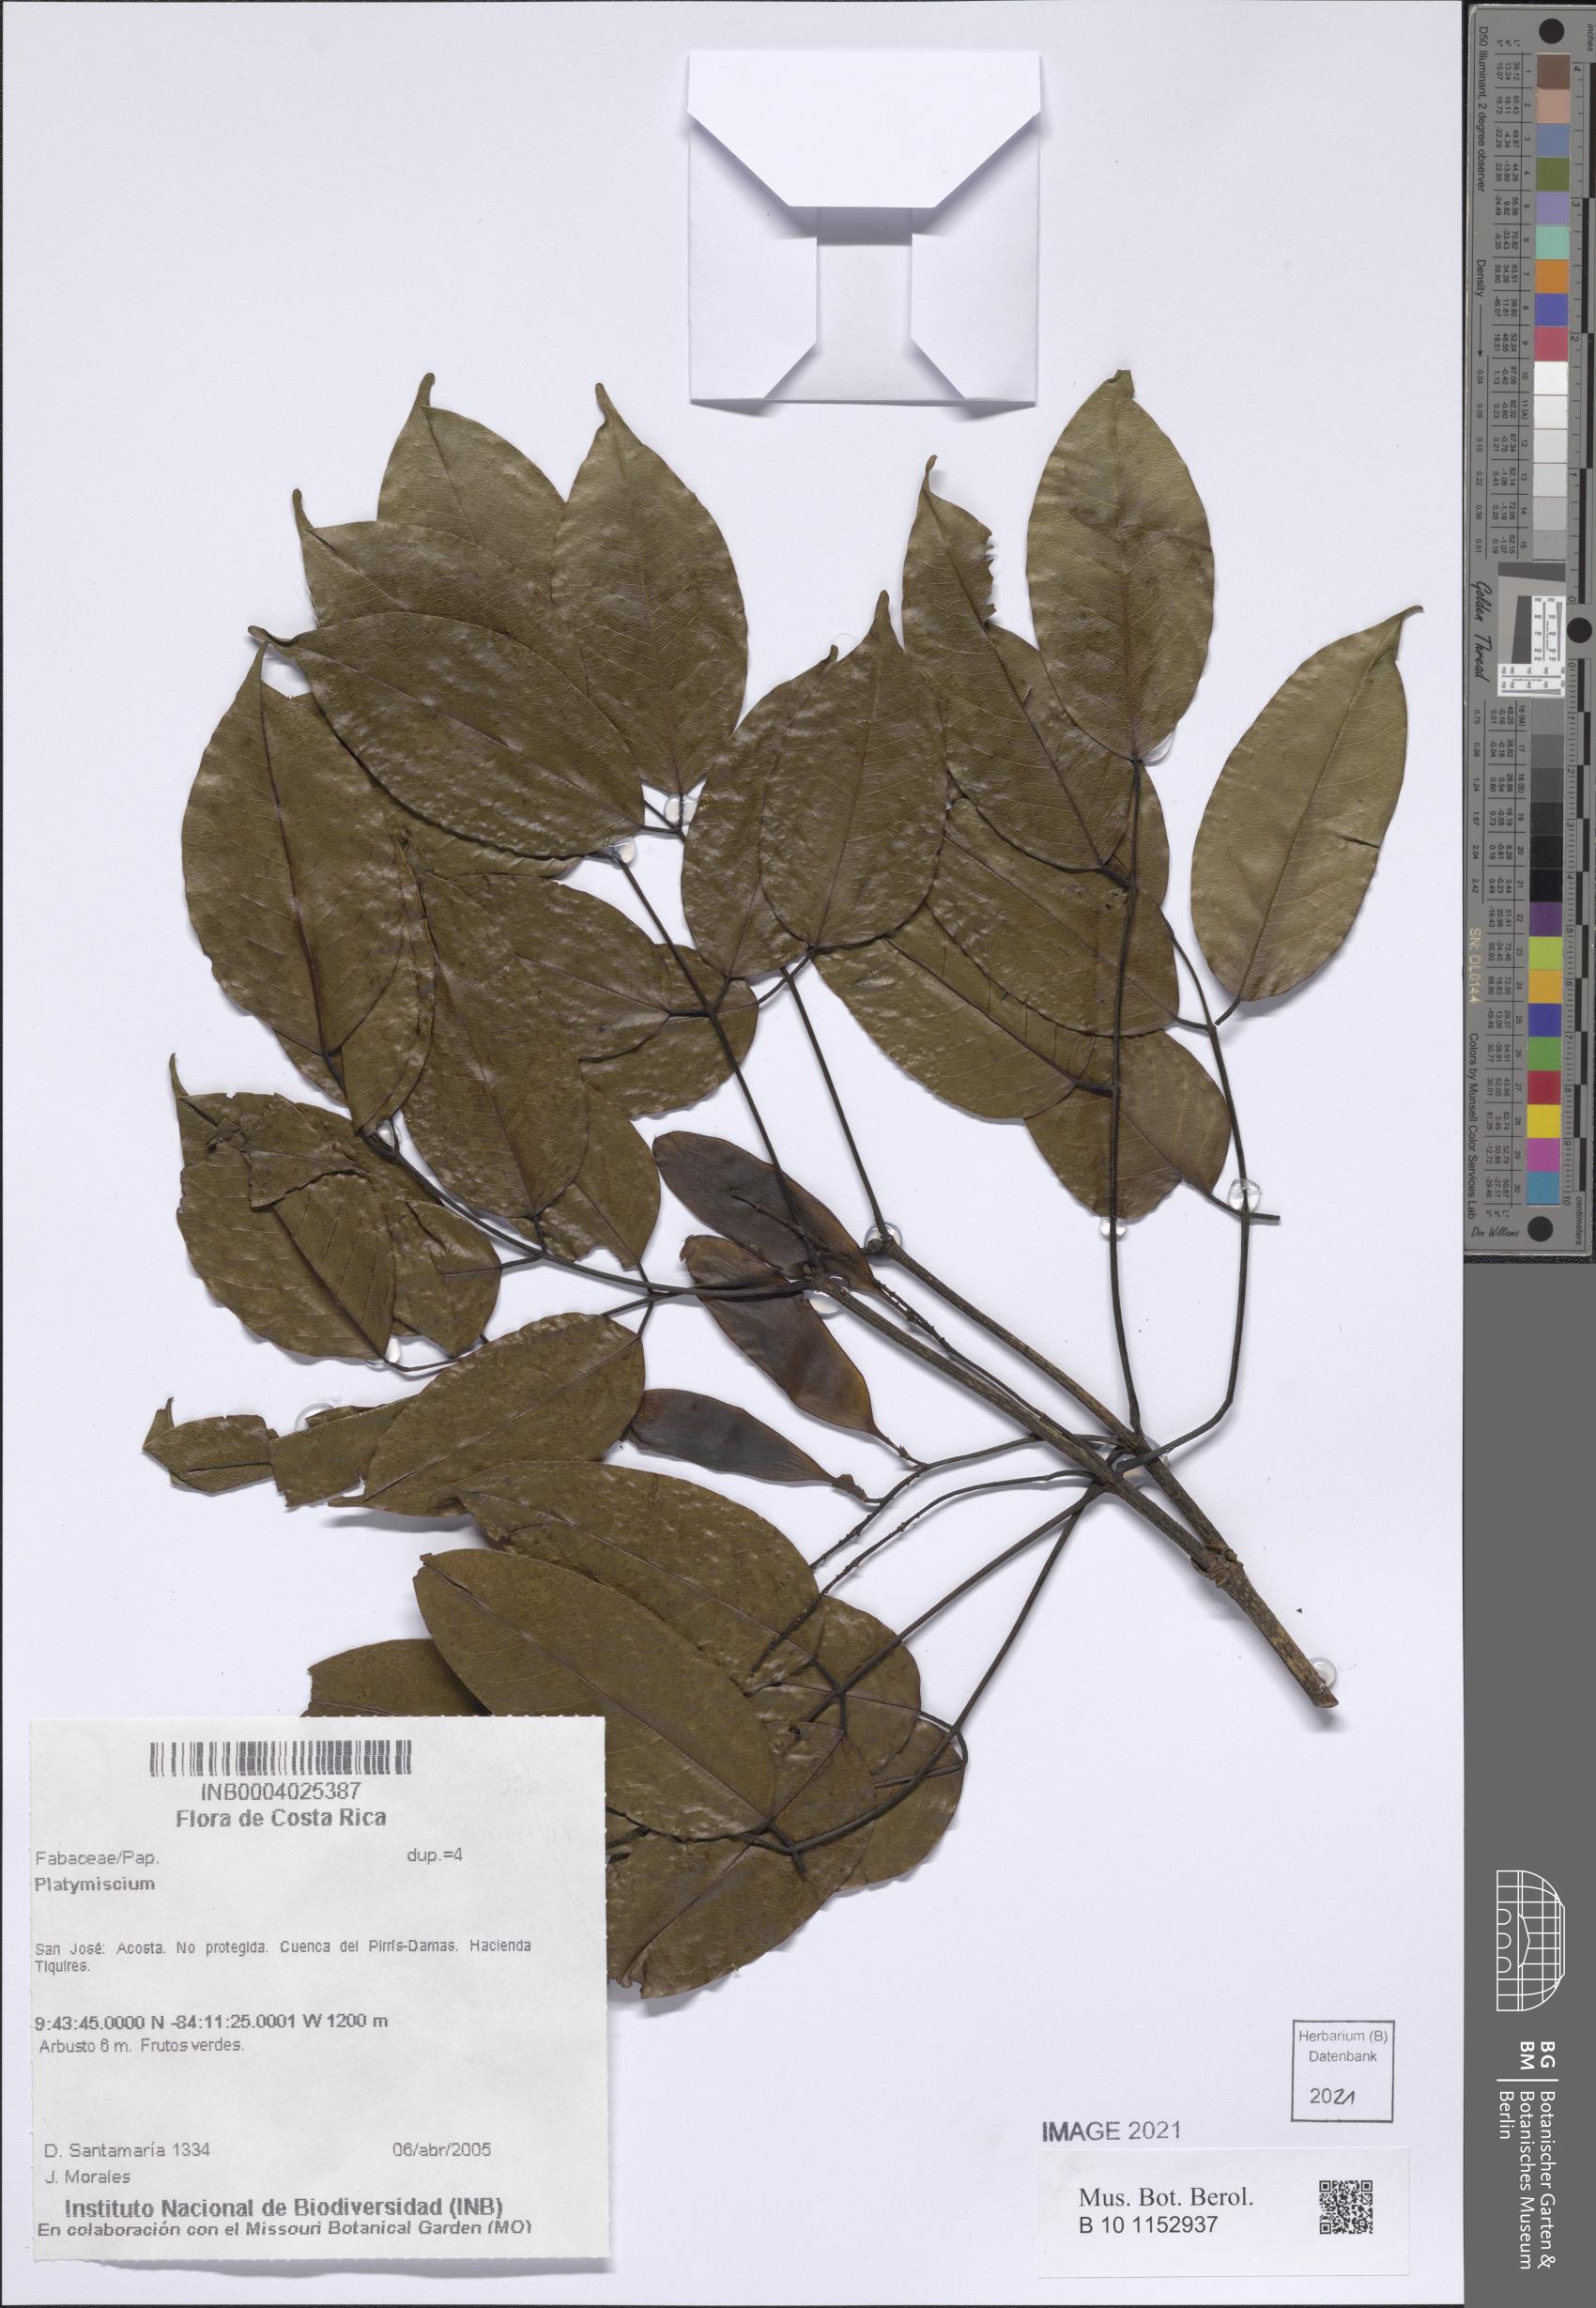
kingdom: Plantae
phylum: Tracheophyta
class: Magnoliopsida
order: Fabales
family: Fabaceae
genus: Platymiscium
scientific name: Platymiscium
